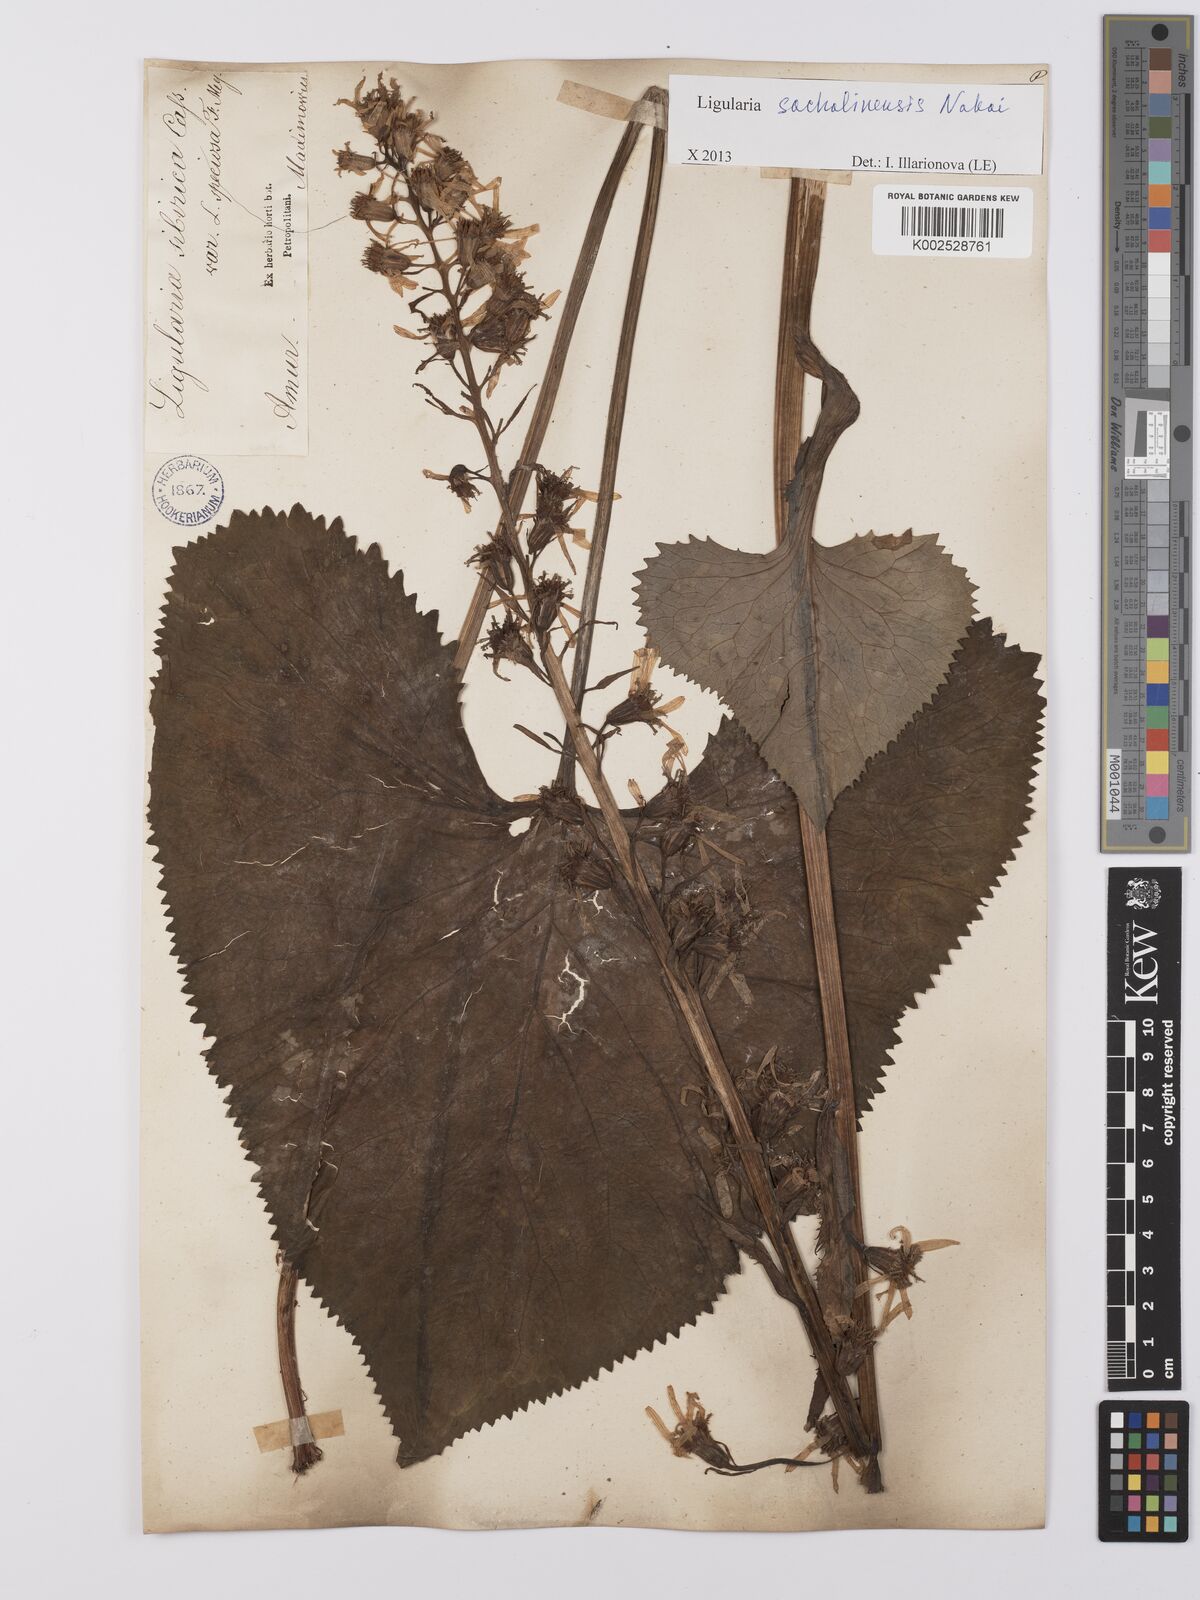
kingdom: Plantae
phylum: Tracheophyta
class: Magnoliopsida
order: Asterales
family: Asteraceae
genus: Ligularia
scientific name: Ligularia sachalinensis
